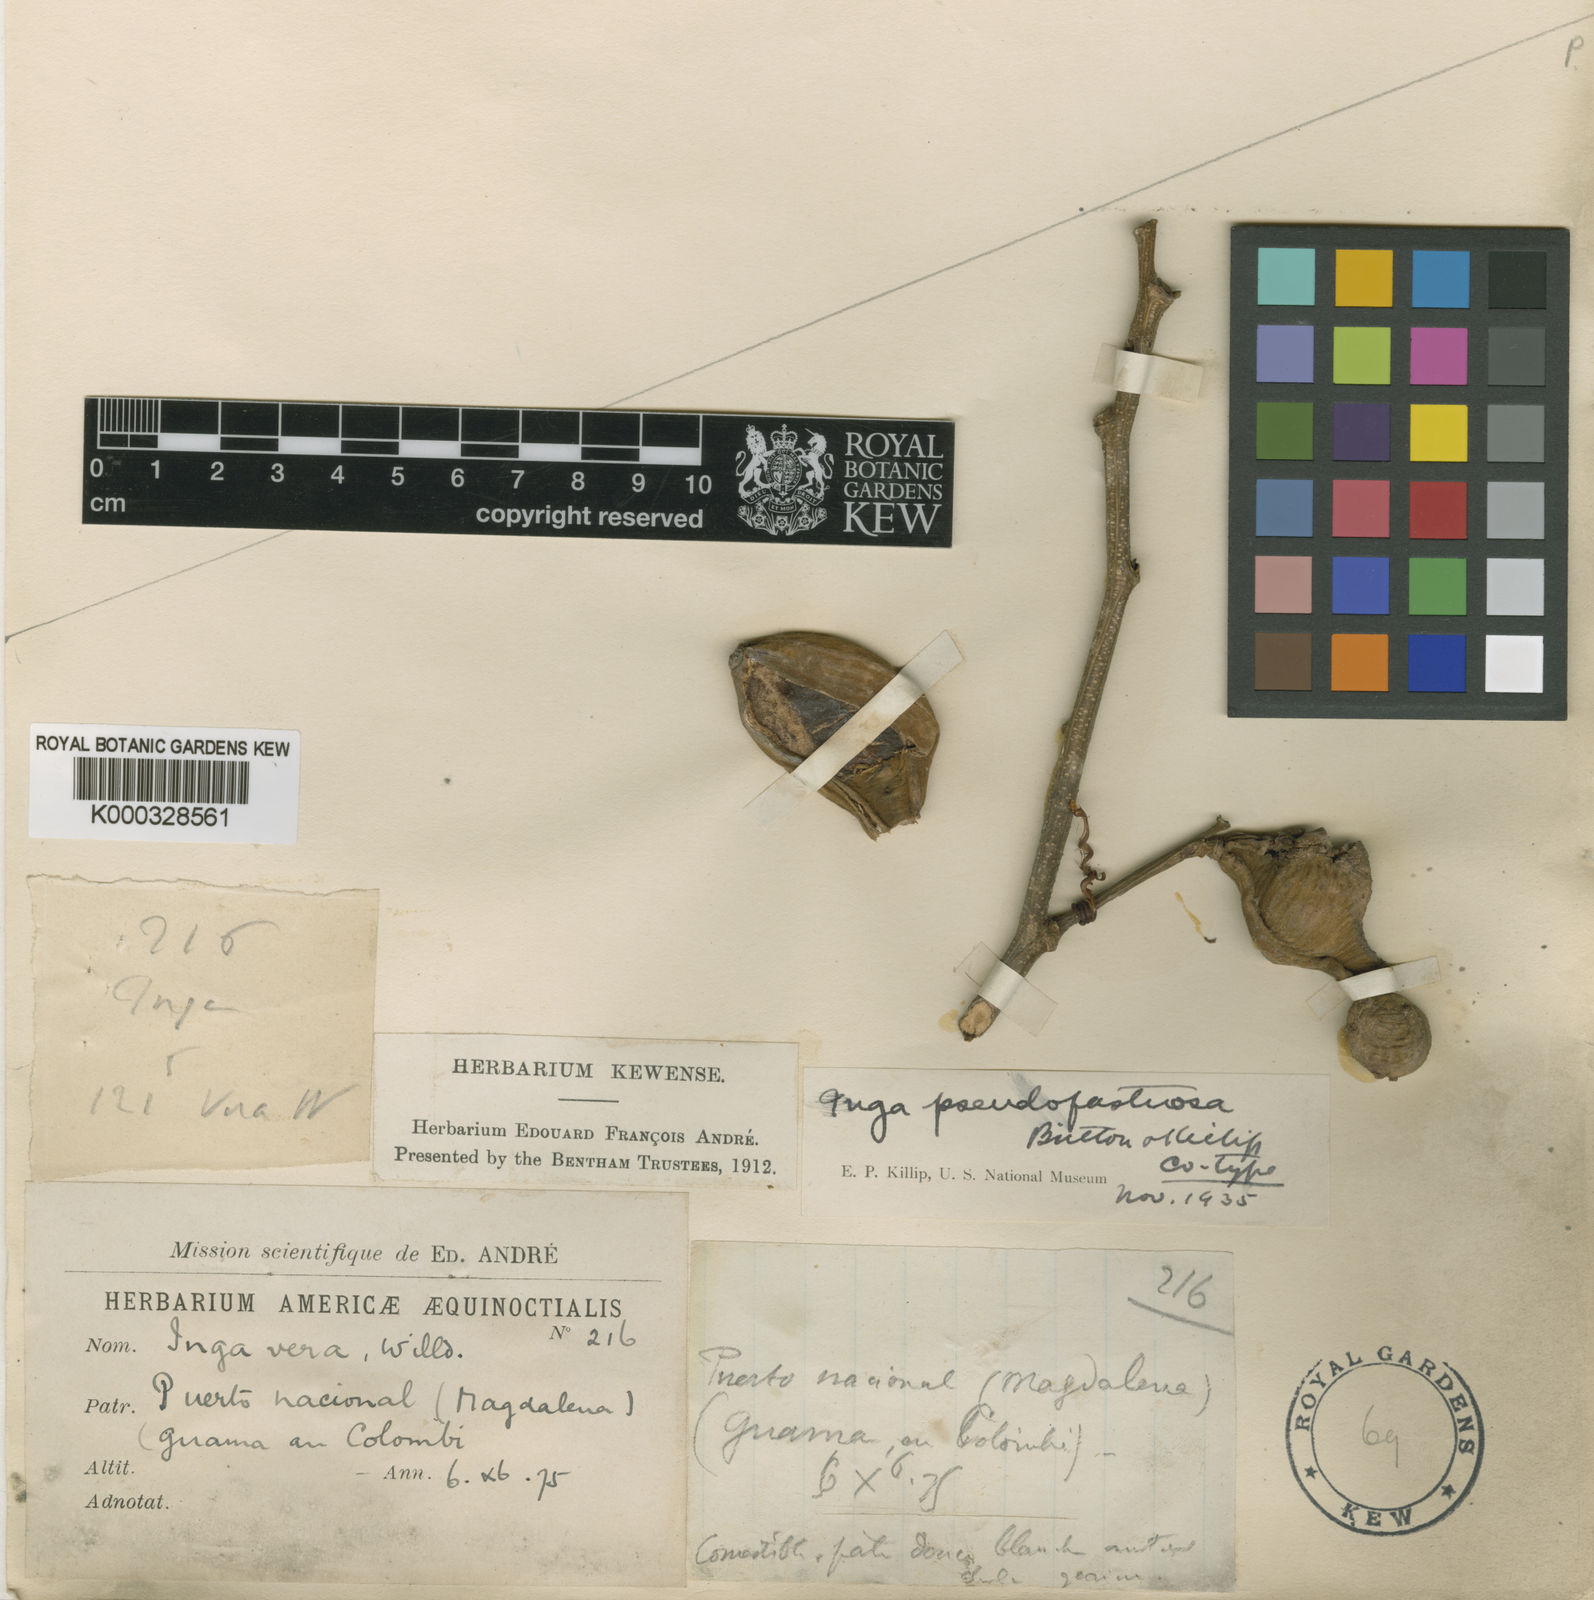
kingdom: Plantae
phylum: Tracheophyta
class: Magnoliopsida
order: Fabales
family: Fabaceae
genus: Inga
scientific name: Inga vera
